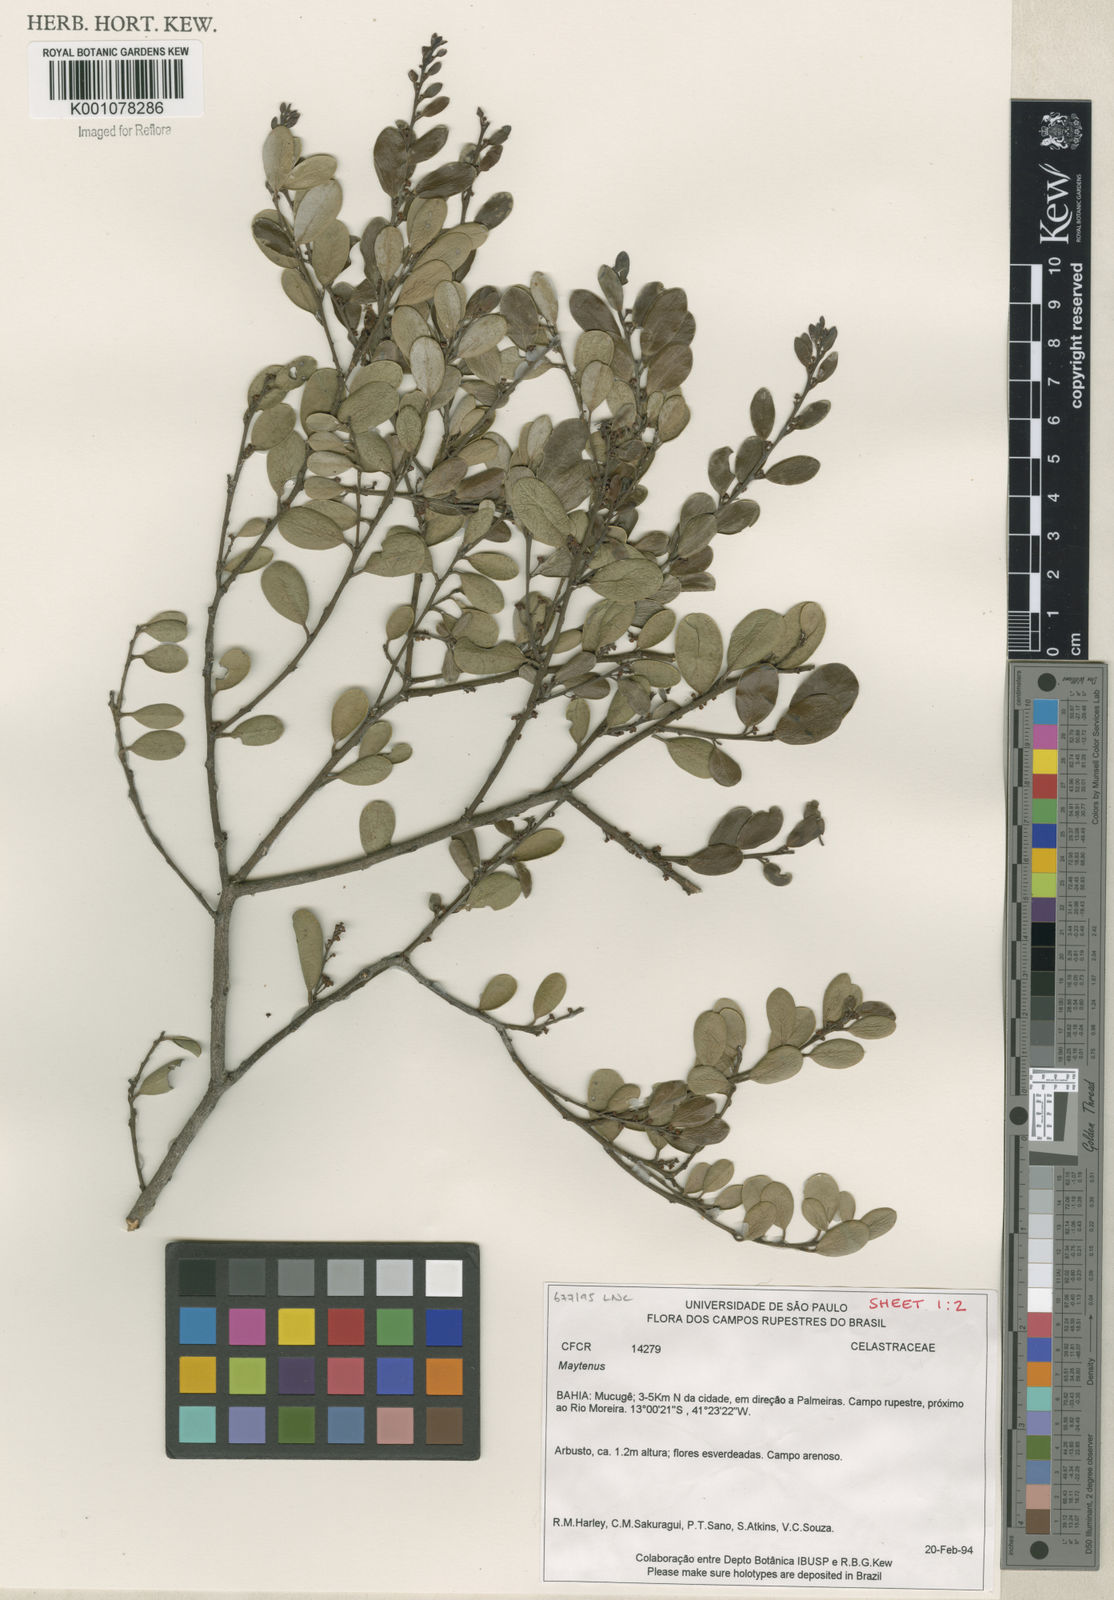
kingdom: Plantae
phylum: Tracheophyta
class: Magnoliopsida
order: Celastrales
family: Celastraceae
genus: Maytenus
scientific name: Maytenus
